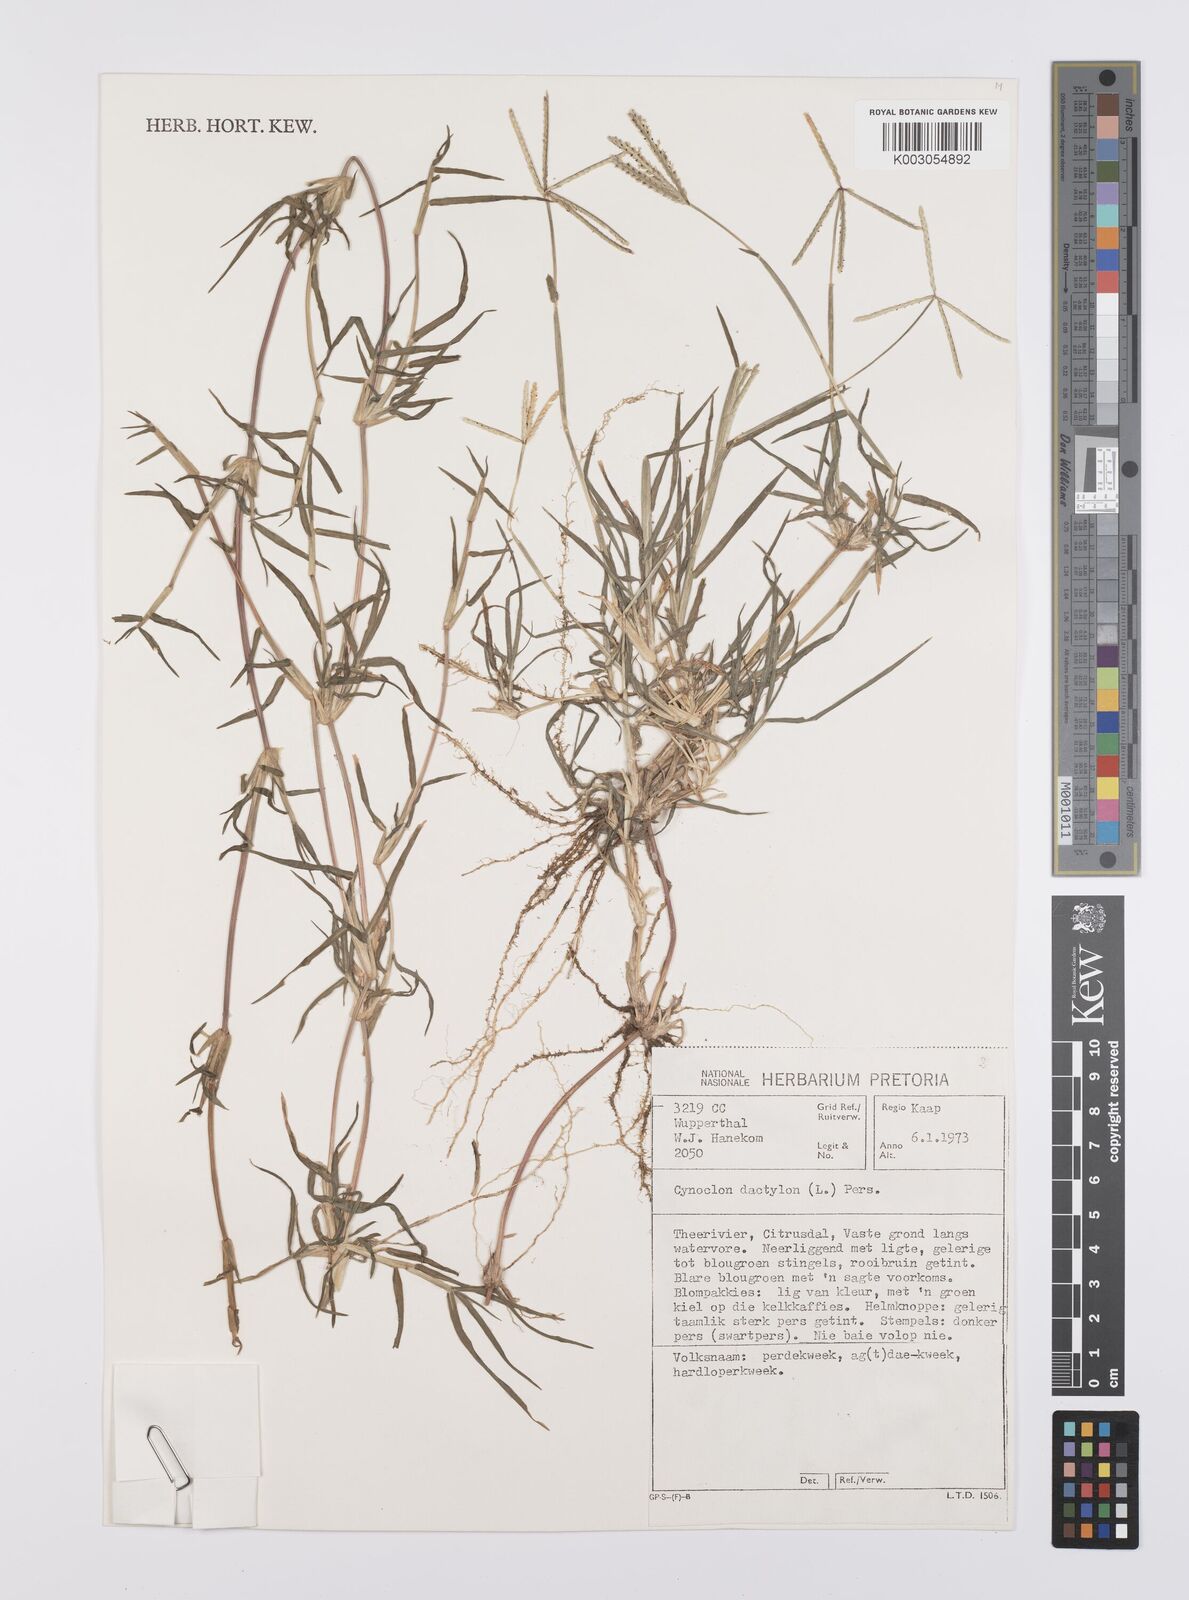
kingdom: Plantae
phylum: Tracheophyta
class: Liliopsida
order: Poales
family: Poaceae
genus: Cynodon
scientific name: Cynodon dactylon
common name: Bermuda grass
